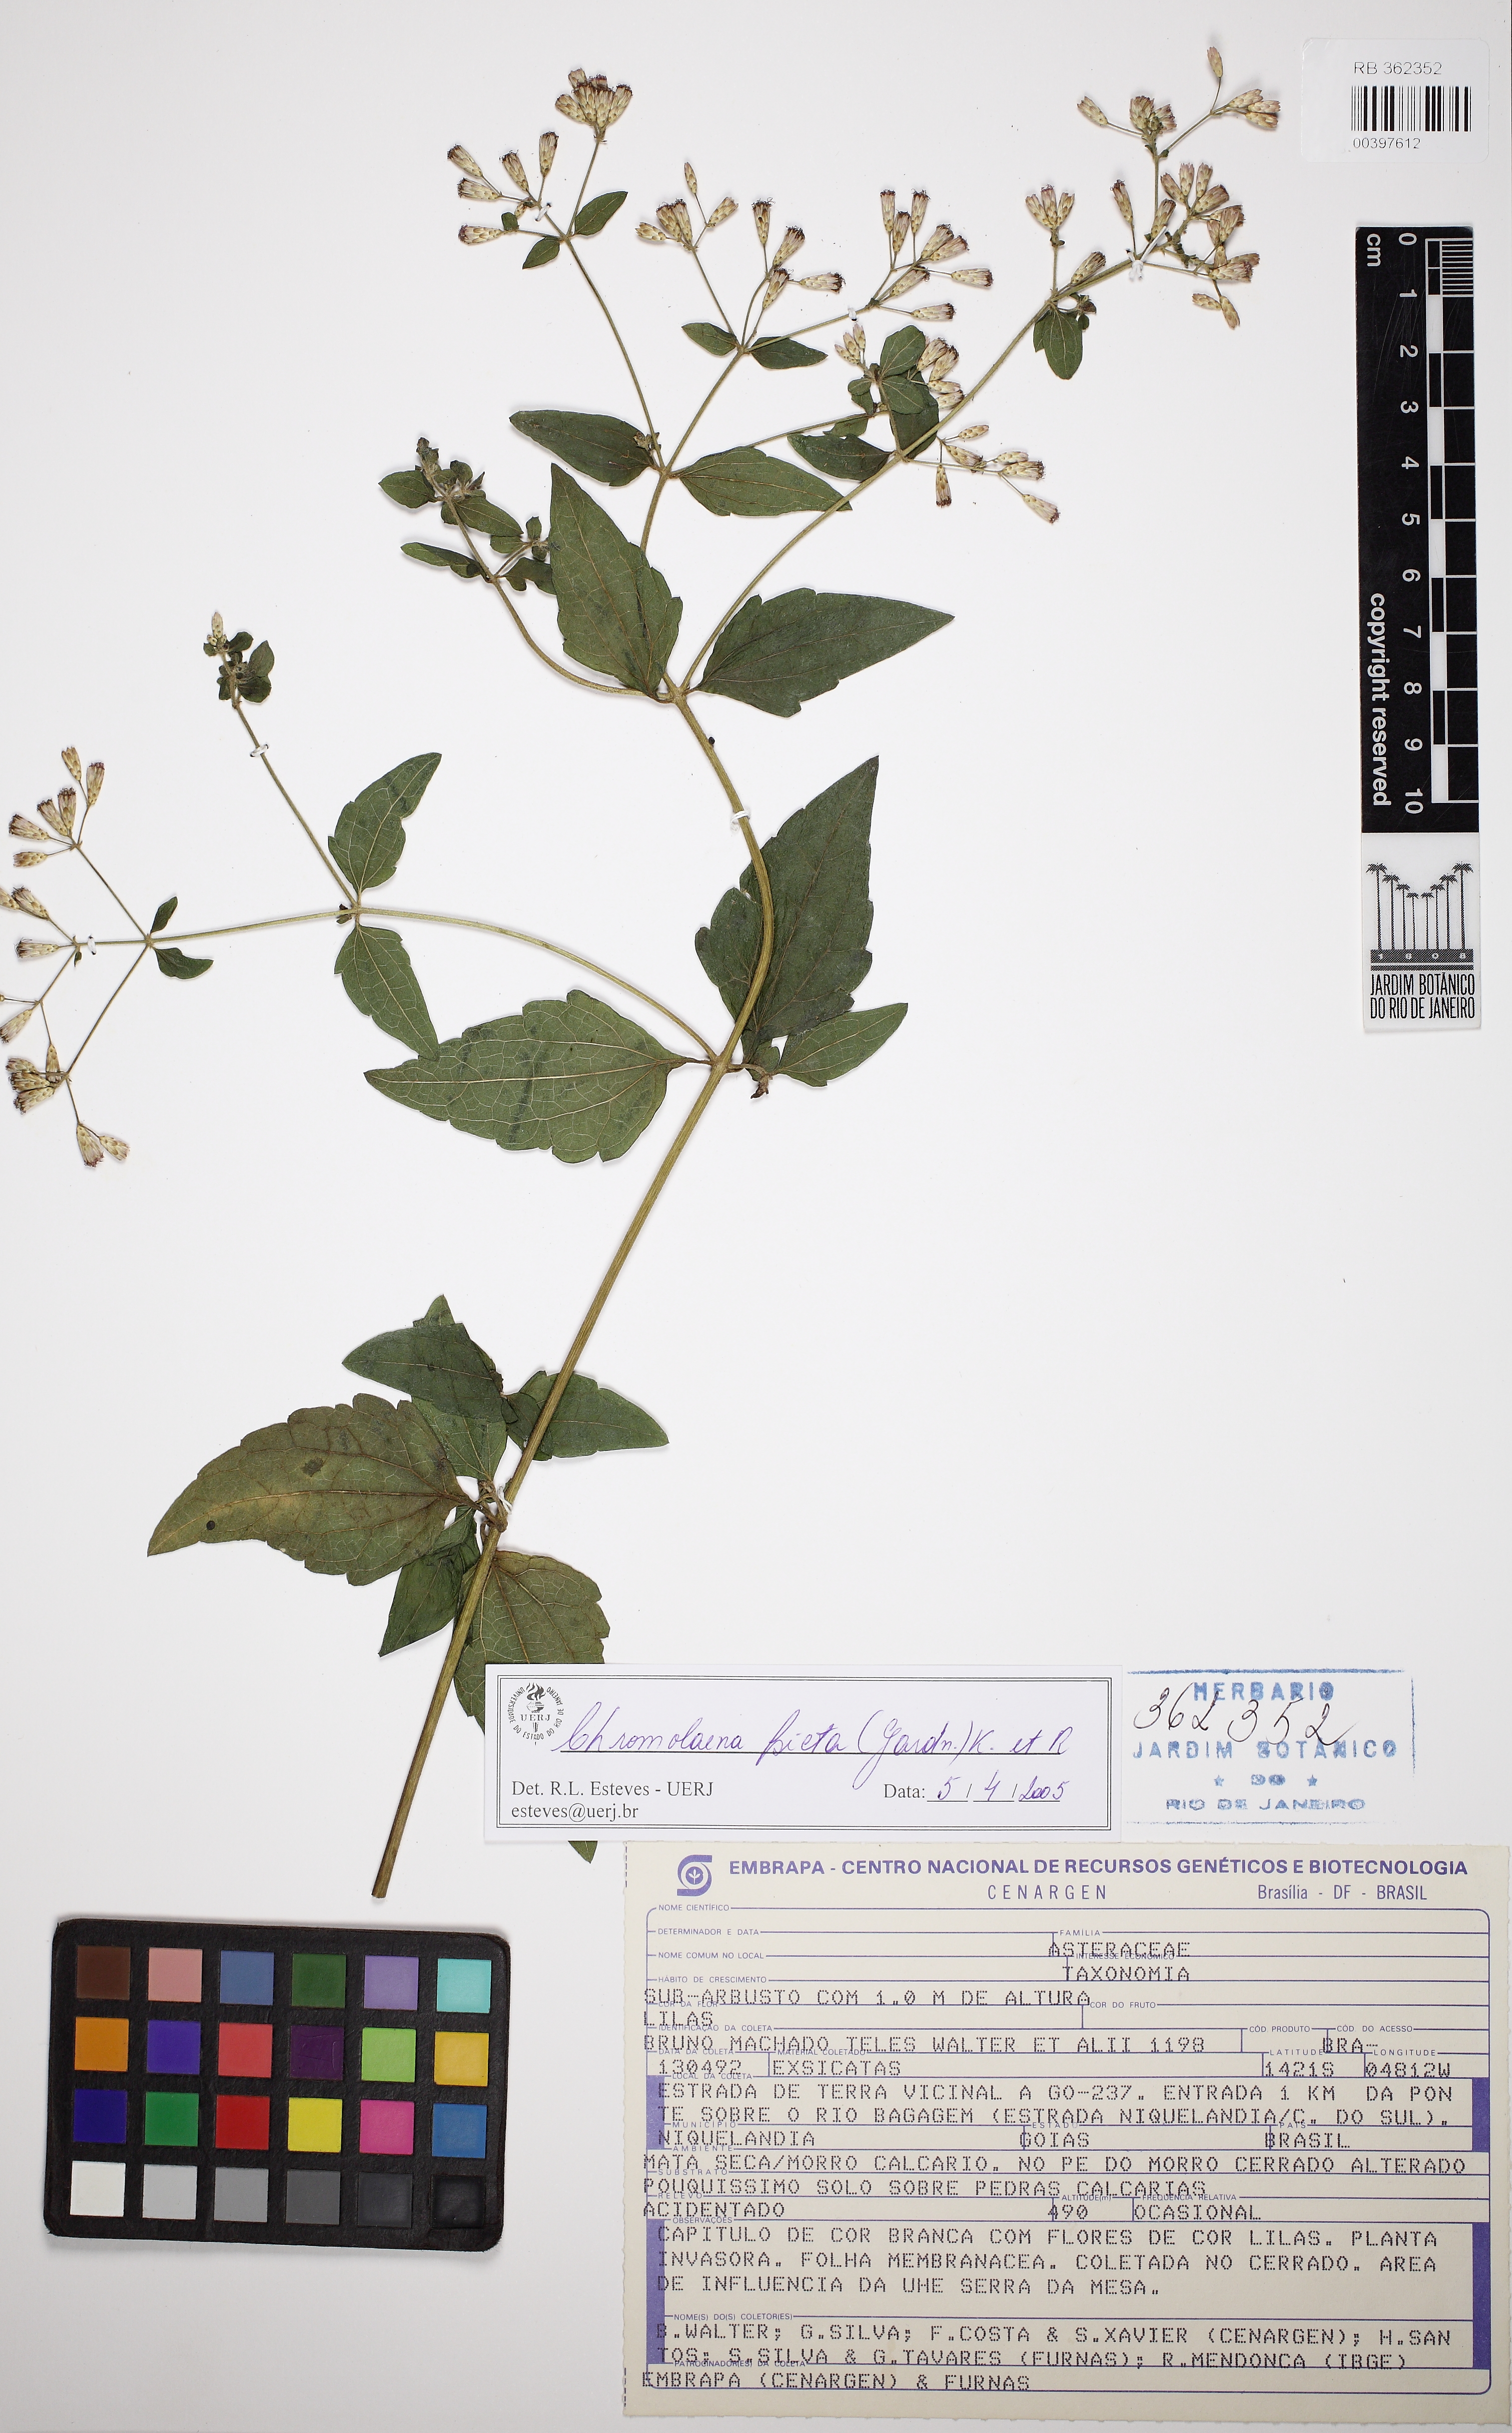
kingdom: Plantae
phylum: Tracheophyta
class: Magnoliopsida
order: Asterales
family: Asteraceae
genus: Chromolaena
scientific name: Chromolaena picta
